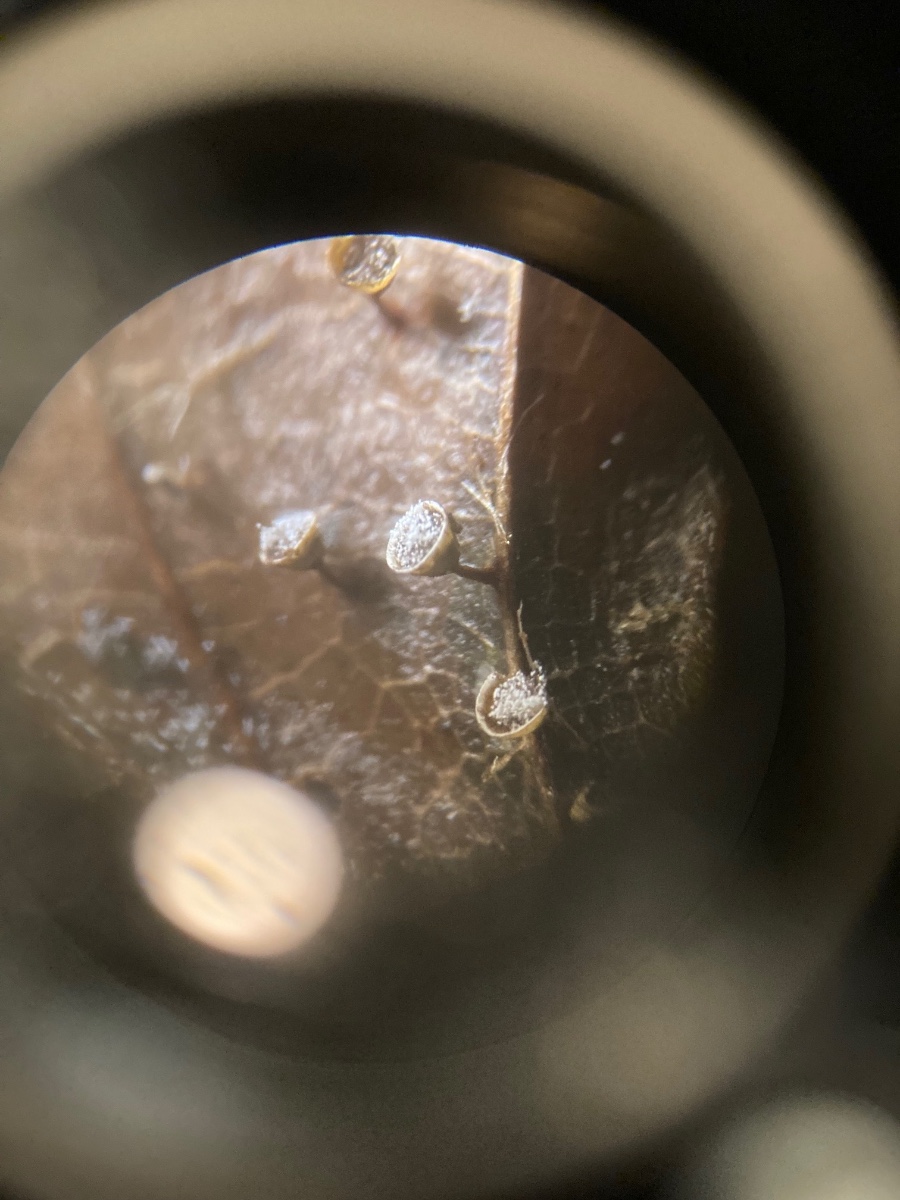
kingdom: Protozoa
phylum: Mycetozoa
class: Myxomycetes
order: Physarales
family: Physaraceae
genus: Craterium
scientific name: Craterium minutum
